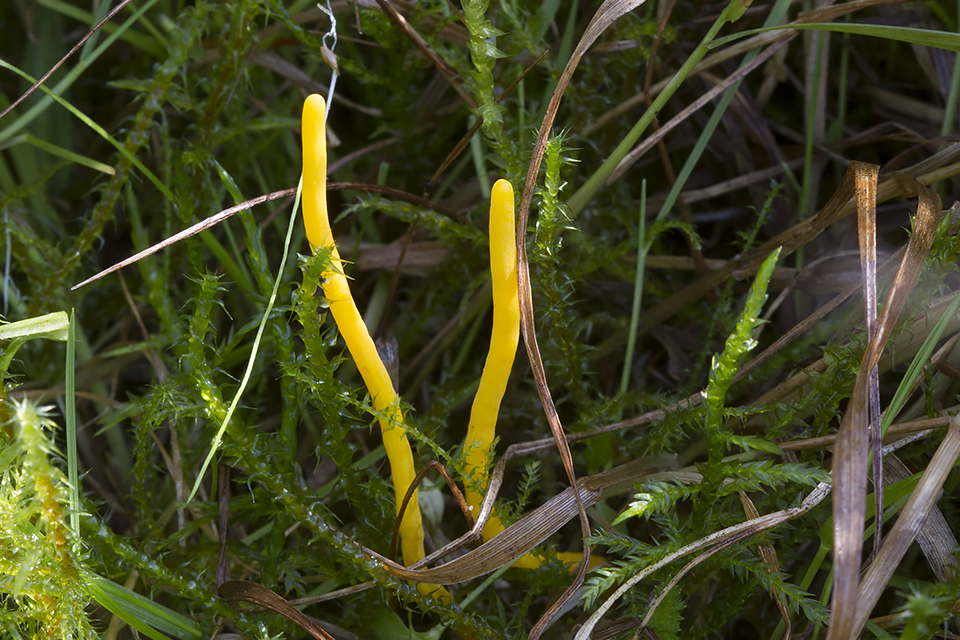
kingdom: Fungi
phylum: Basidiomycota
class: Agaricomycetes
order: Agaricales
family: Clavariaceae
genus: Clavulinopsis
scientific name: Clavulinopsis helvola
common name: orangegul køllesvamp
